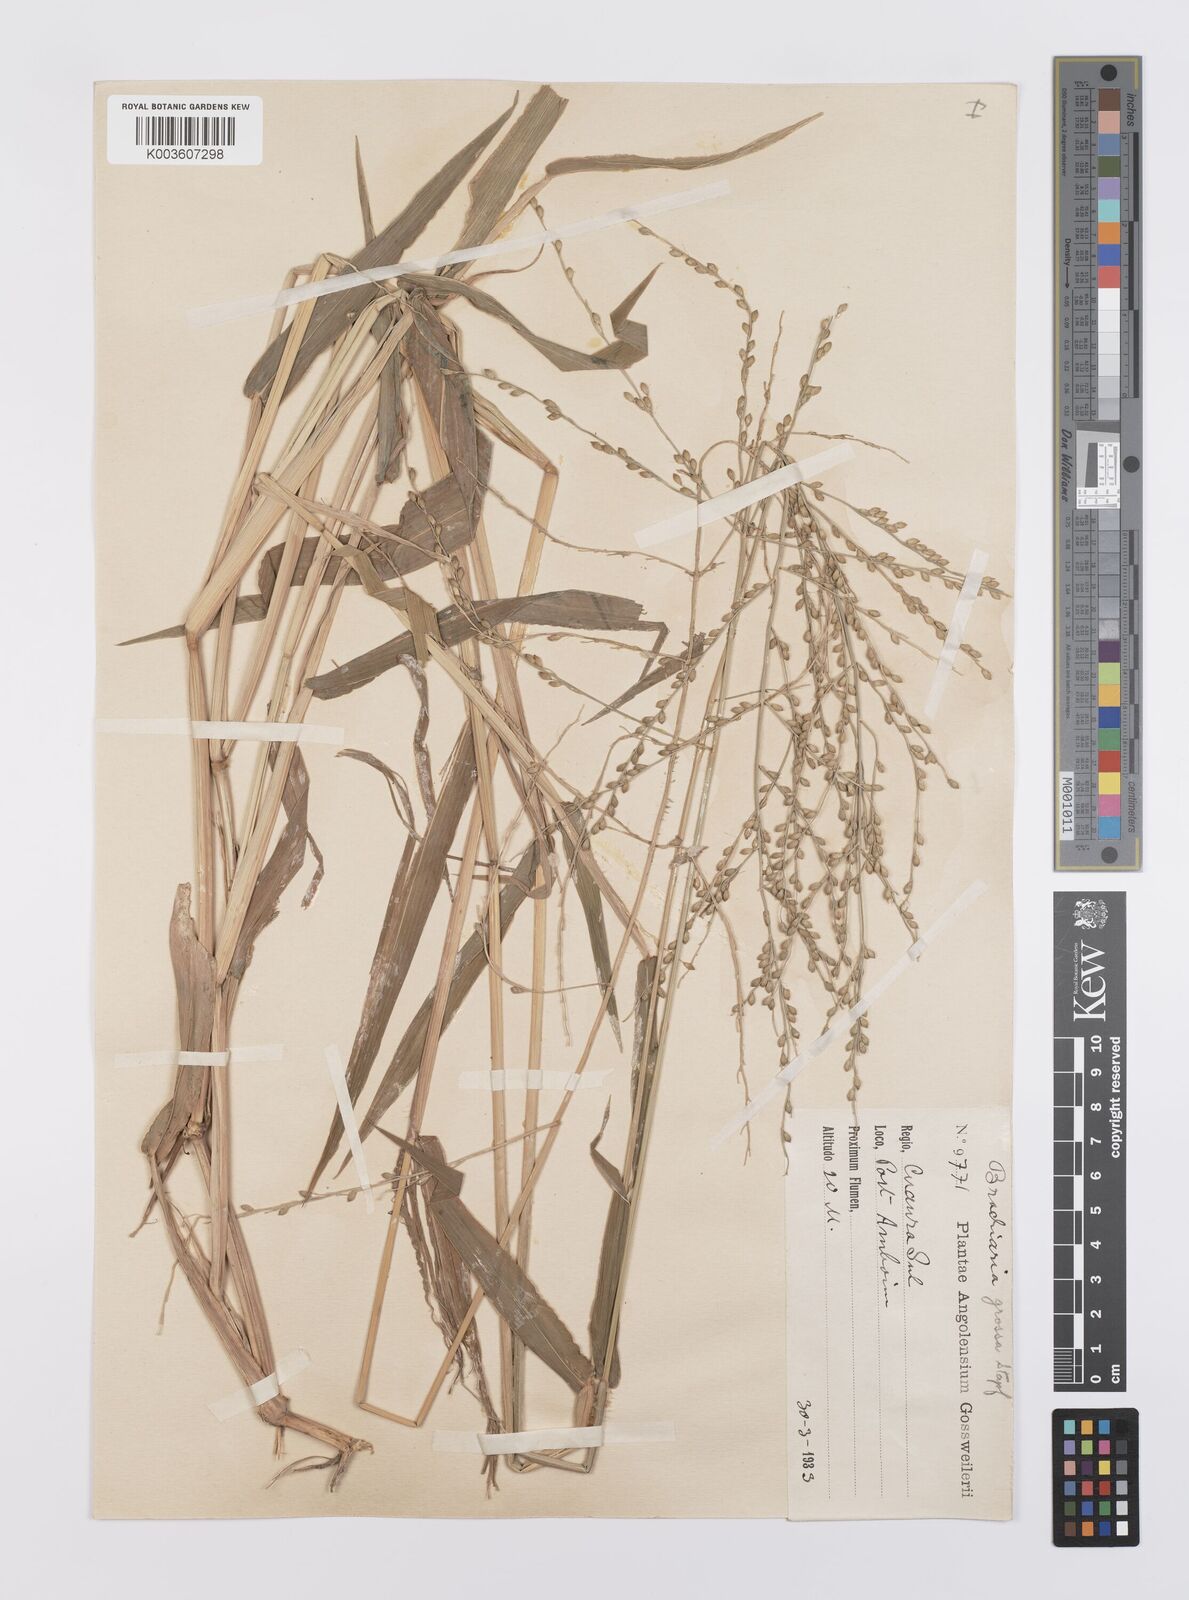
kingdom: Plantae
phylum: Tracheophyta
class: Liliopsida
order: Poales
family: Poaceae
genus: Urochloa
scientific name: Urochloa Brachiaria grossa
